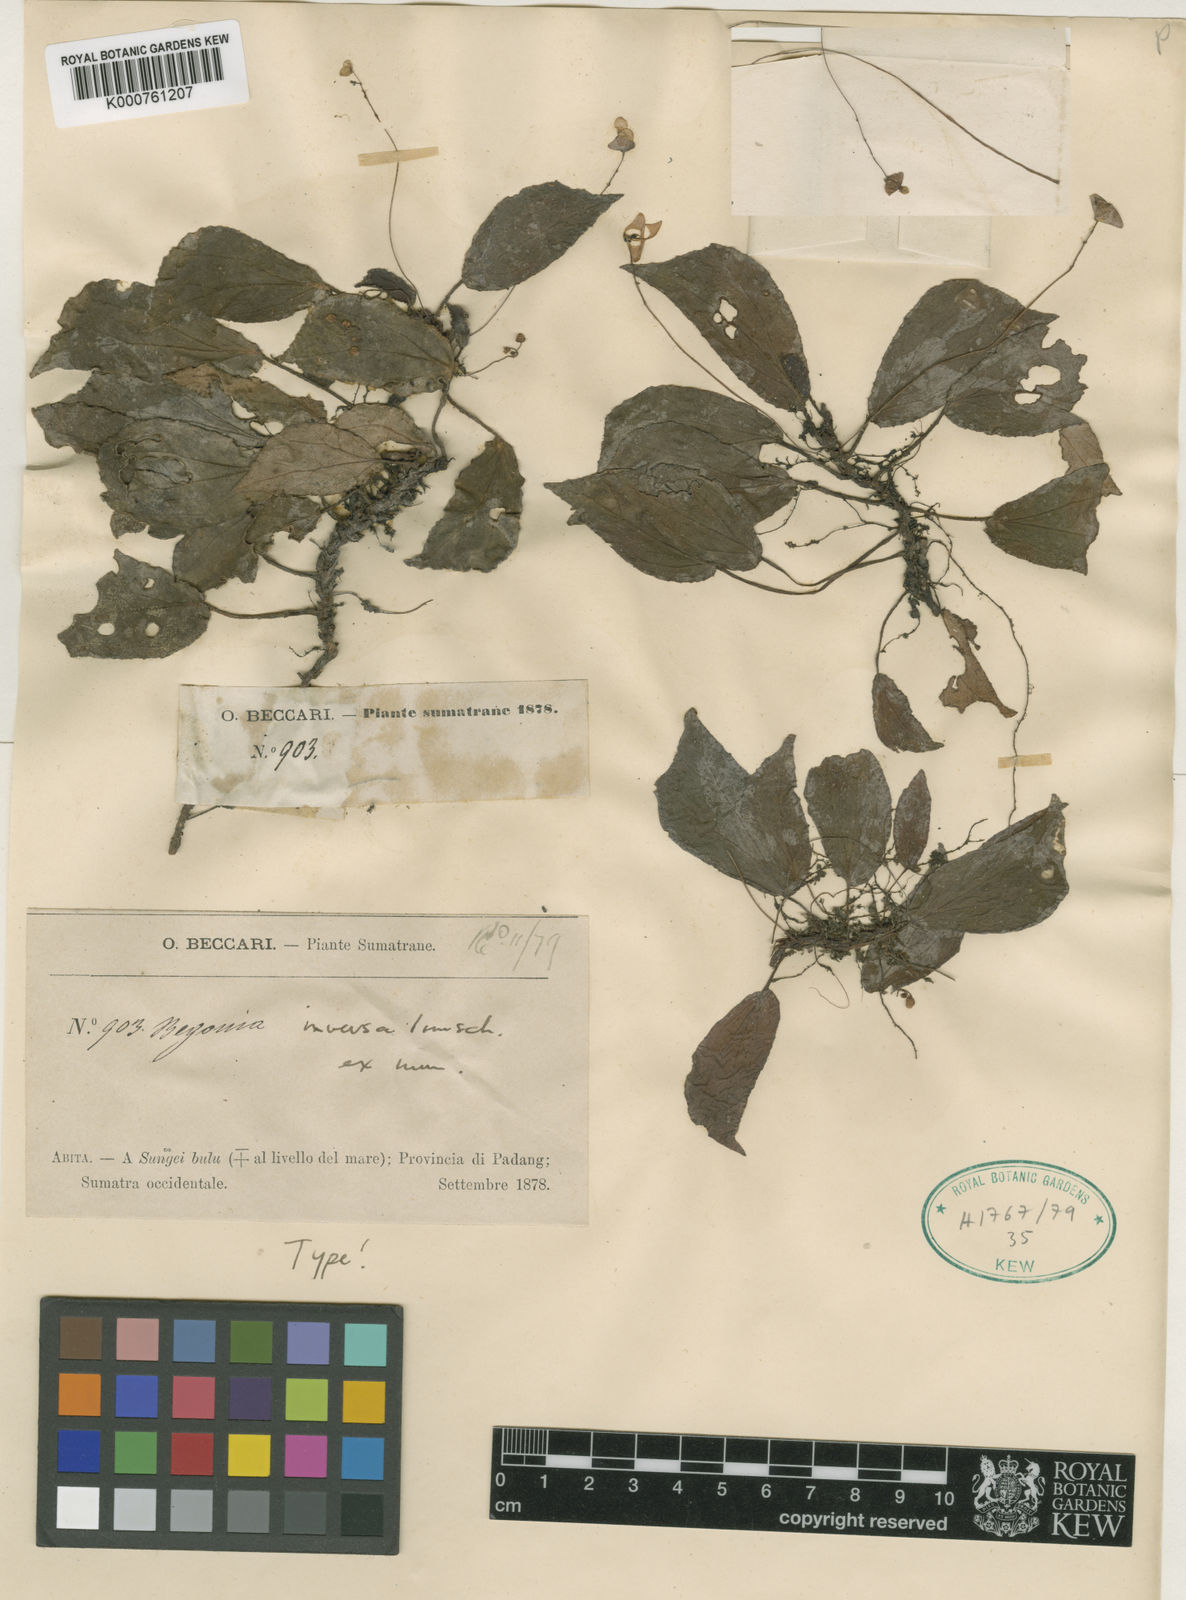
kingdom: Plantae
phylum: Tracheophyta
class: Magnoliopsida
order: Cucurbitales
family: Begoniaceae
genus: Begonia
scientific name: Begonia inversa
